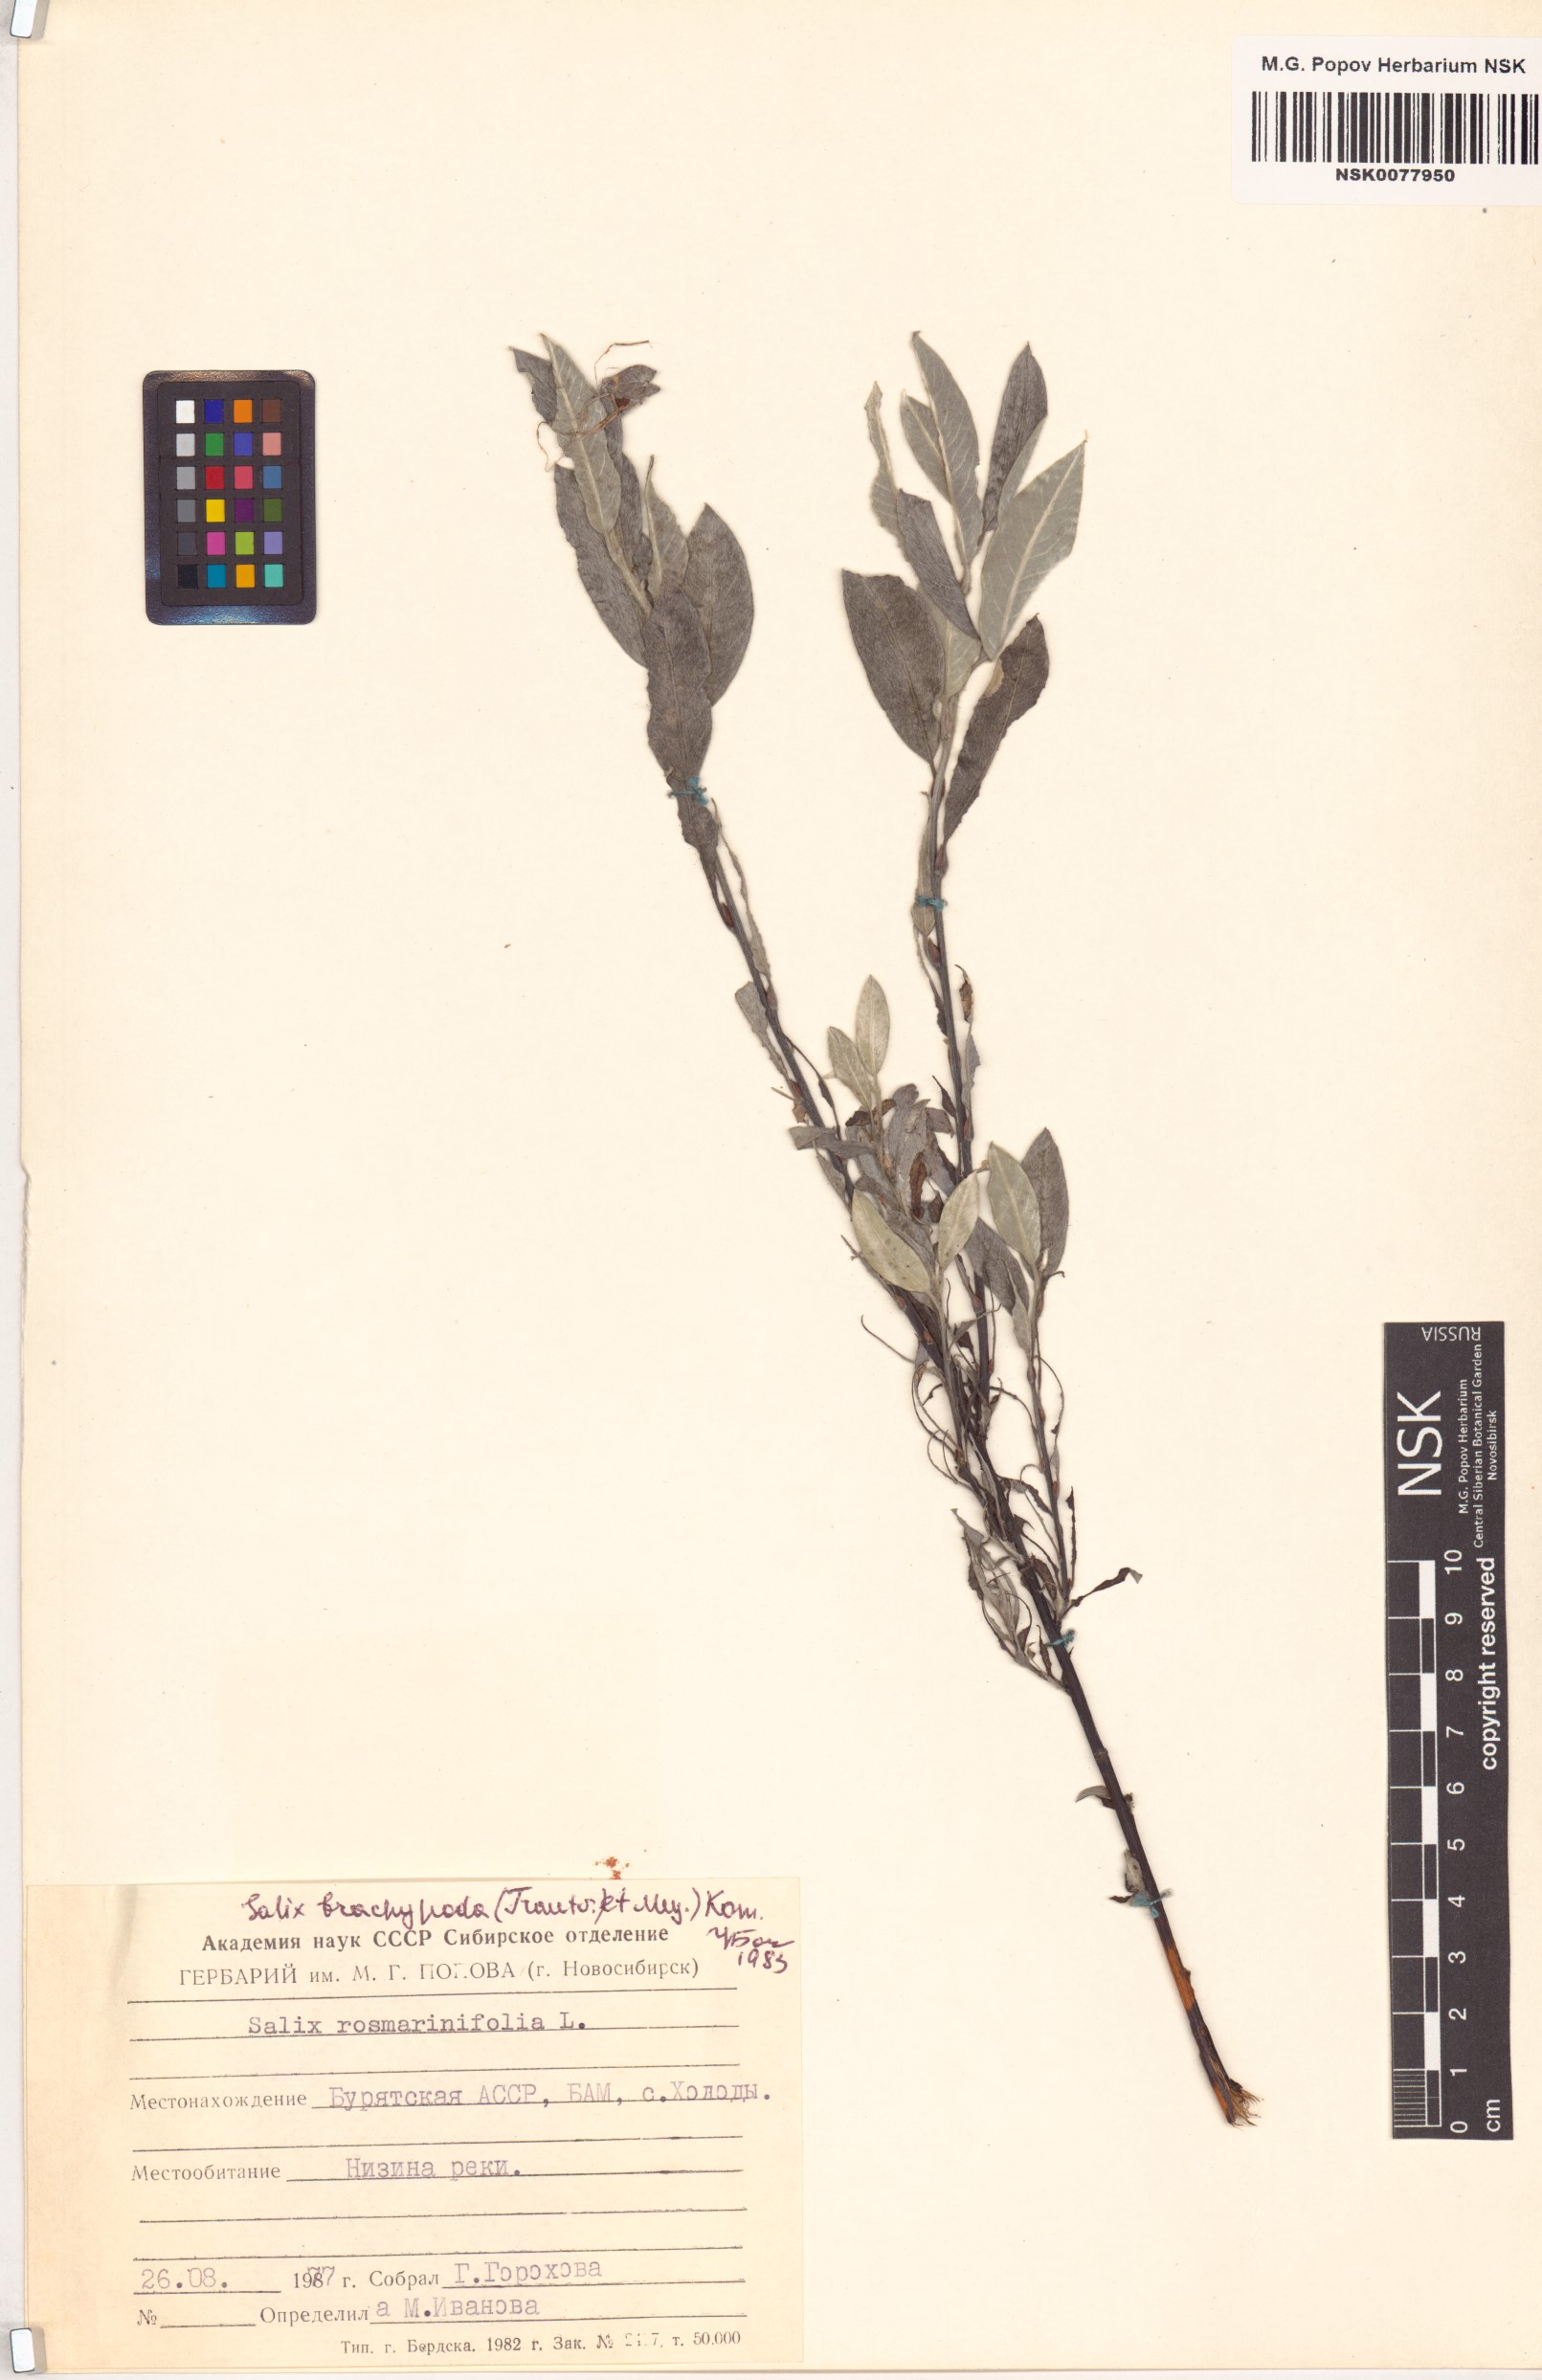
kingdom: Plantae
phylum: Tracheophyta
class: Magnoliopsida
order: Malpighiales
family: Salicaceae
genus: Salix
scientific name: Salix brachypoda
